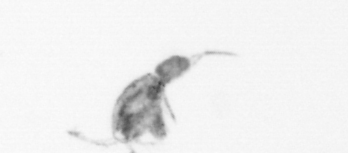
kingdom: Animalia
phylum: Arthropoda
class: Copepoda
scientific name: Copepoda
